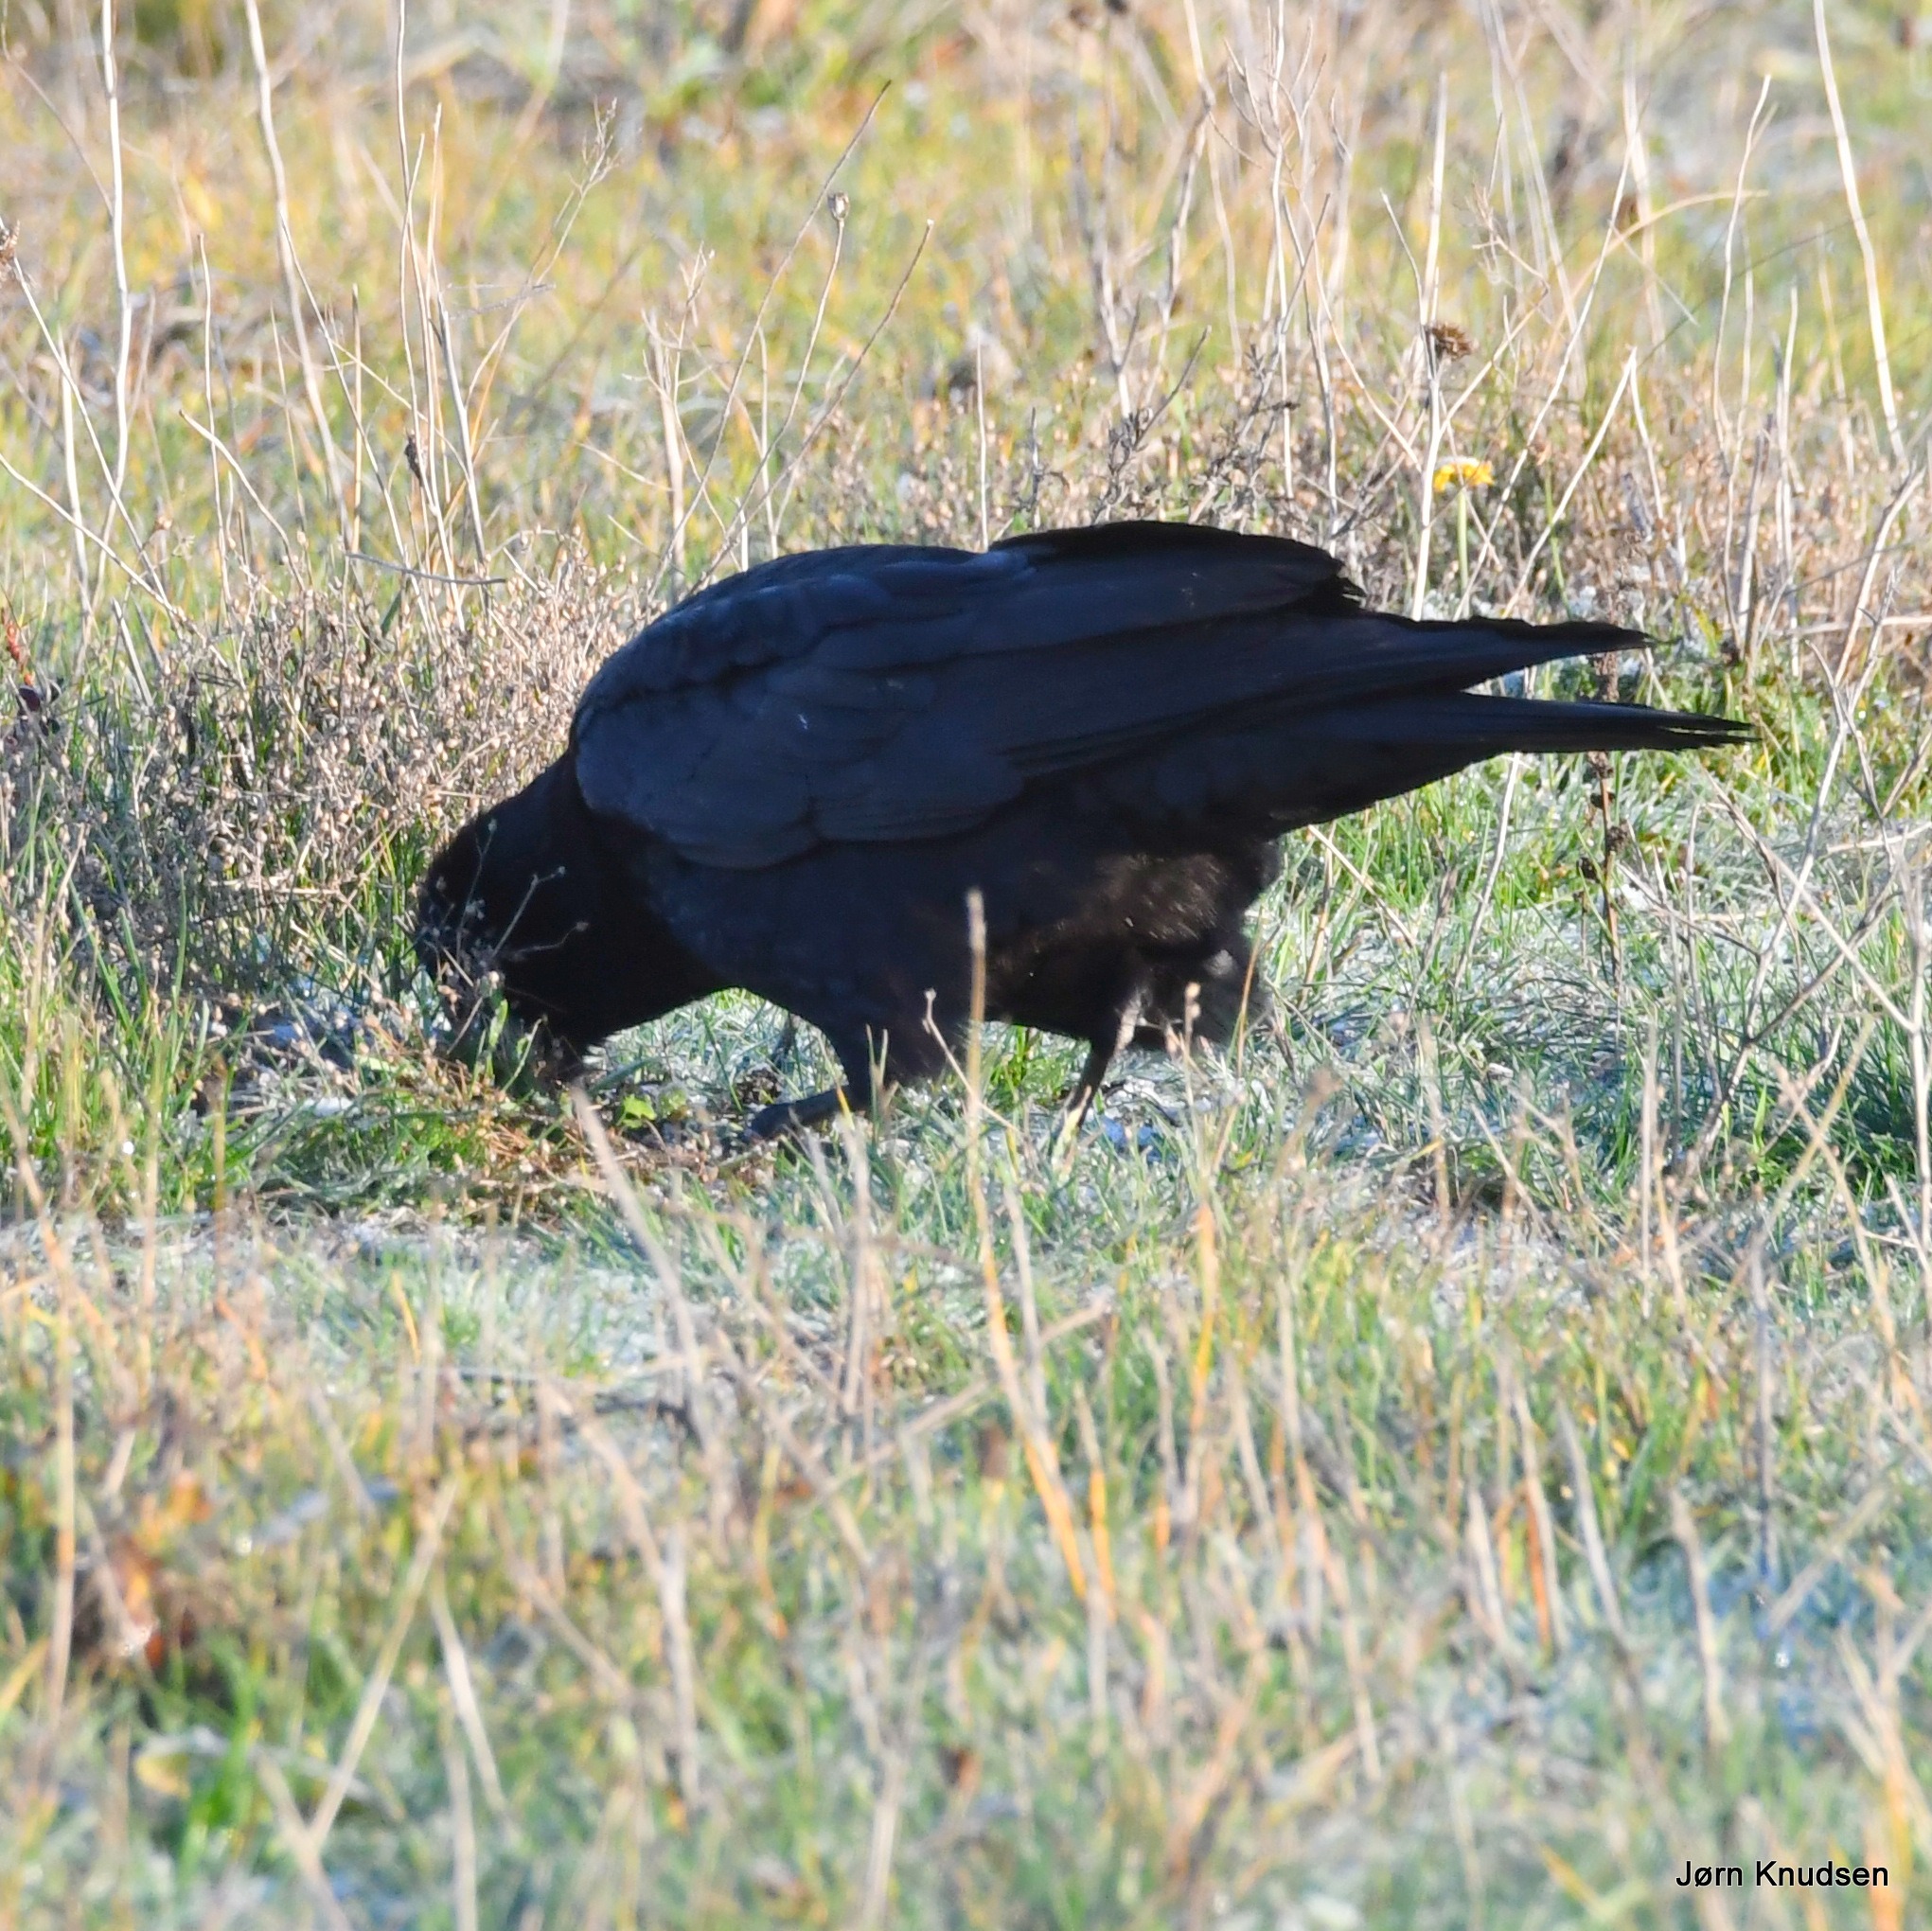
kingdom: Animalia
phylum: Chordata
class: Aves
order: Passeriformes
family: Corvidae
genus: Corvus
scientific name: Corvus frugilegus
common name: Råge
